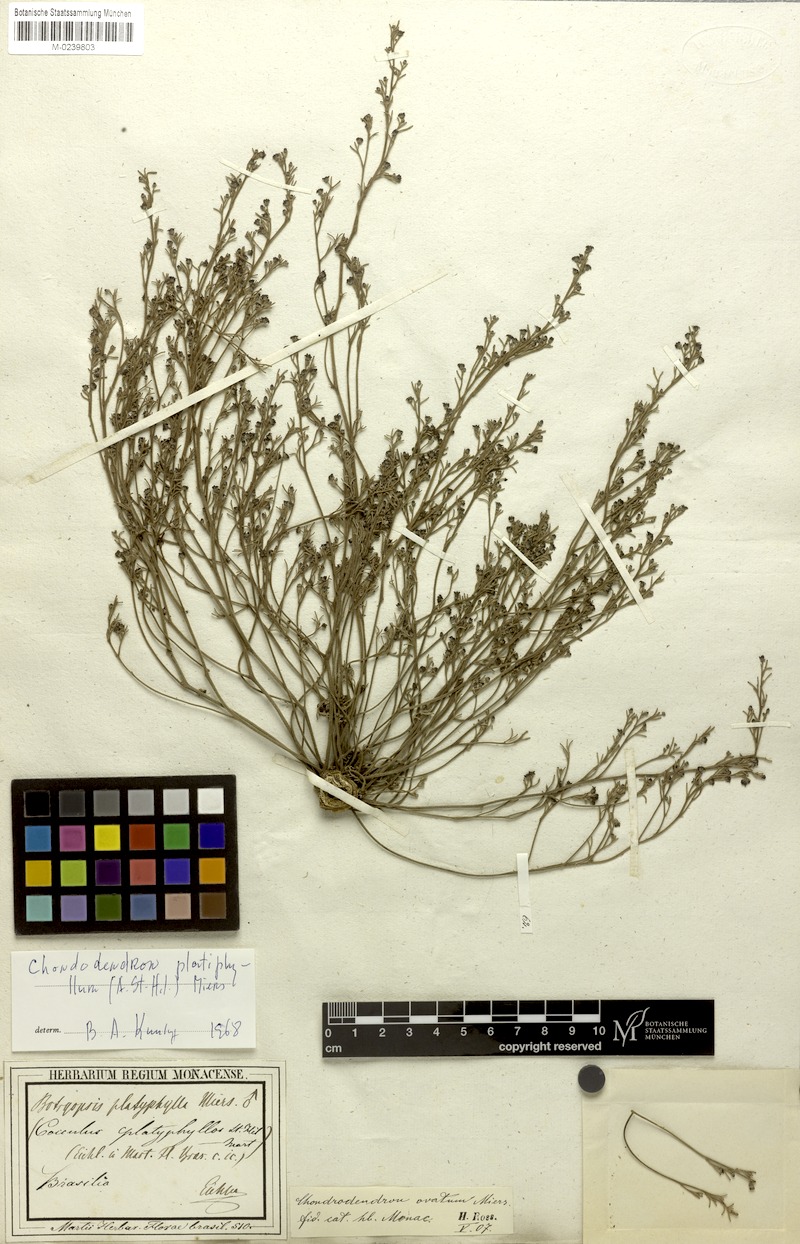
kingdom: Plantae
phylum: Tracheophyta
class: Magnoliopsida
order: Ranunculales
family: Menispermaceae
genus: Chondrodendron
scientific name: Chondrodendron platyphyllum
